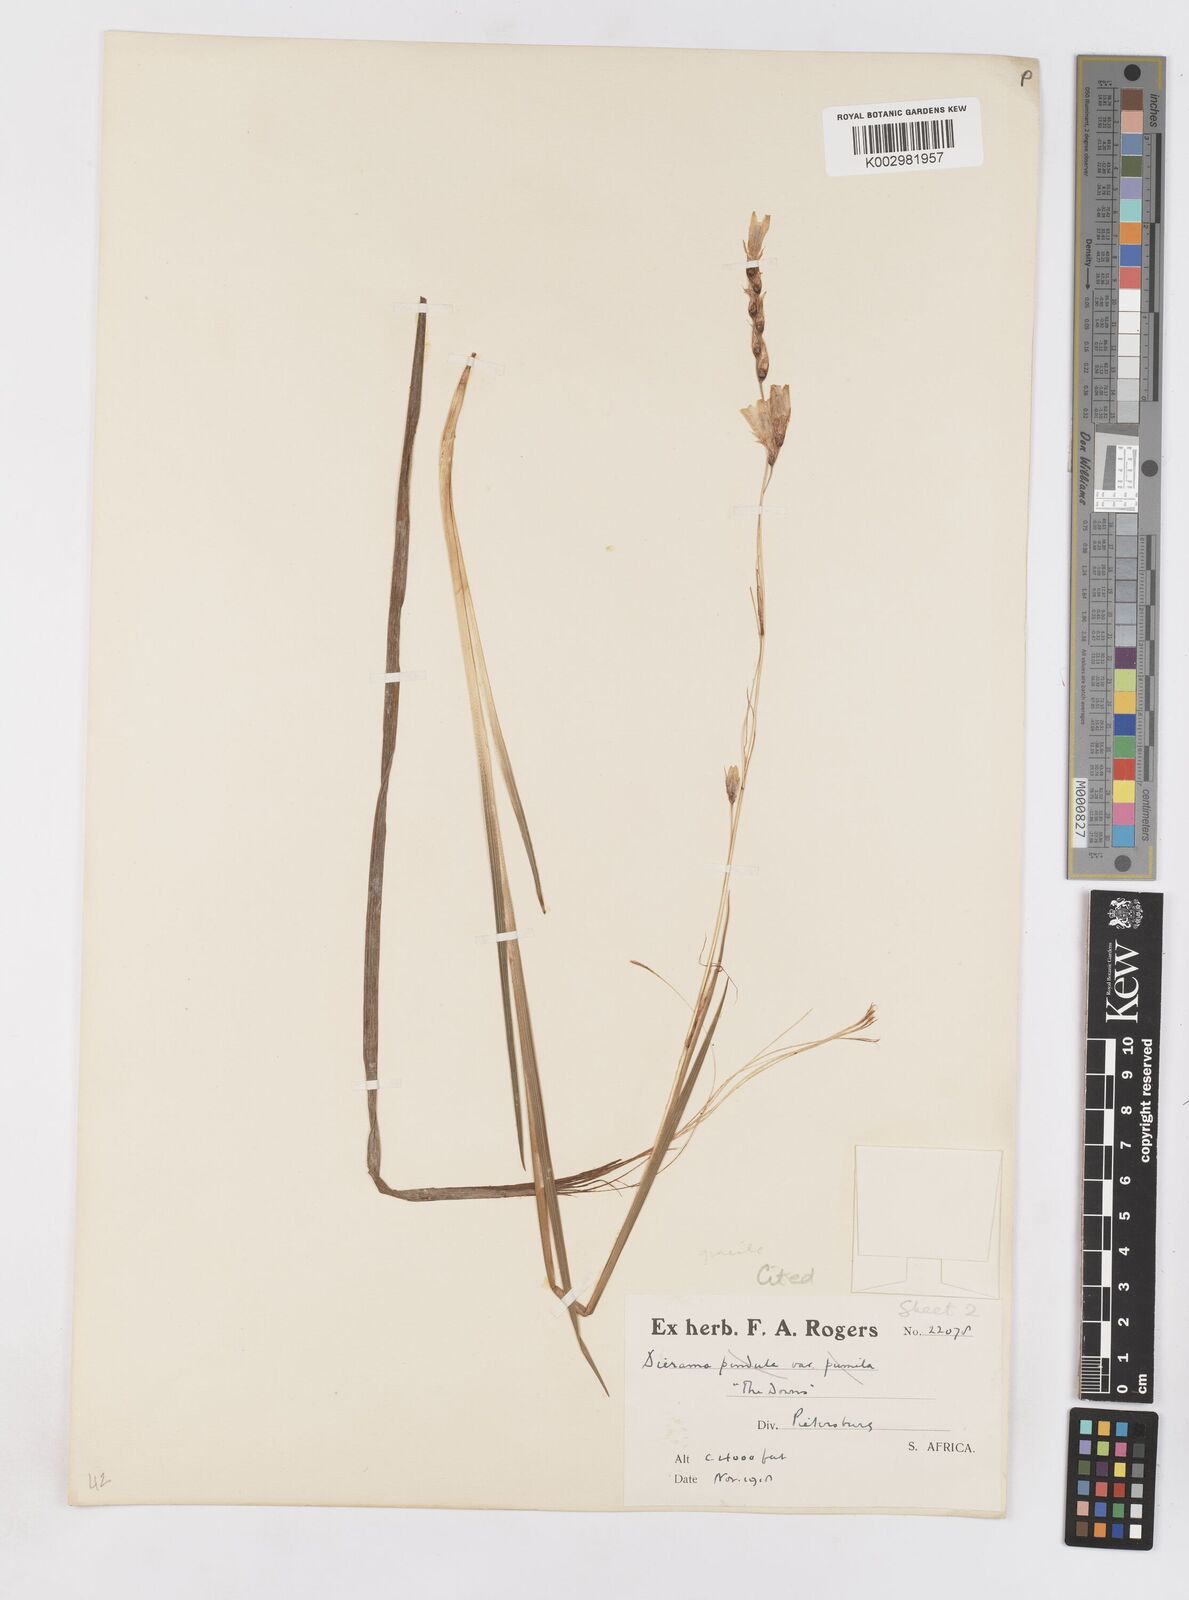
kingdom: Plantae
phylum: Tracheophyta
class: Liliopsida
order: Asparagales
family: Iridaceae
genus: Dierama
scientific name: Dierama gracile
